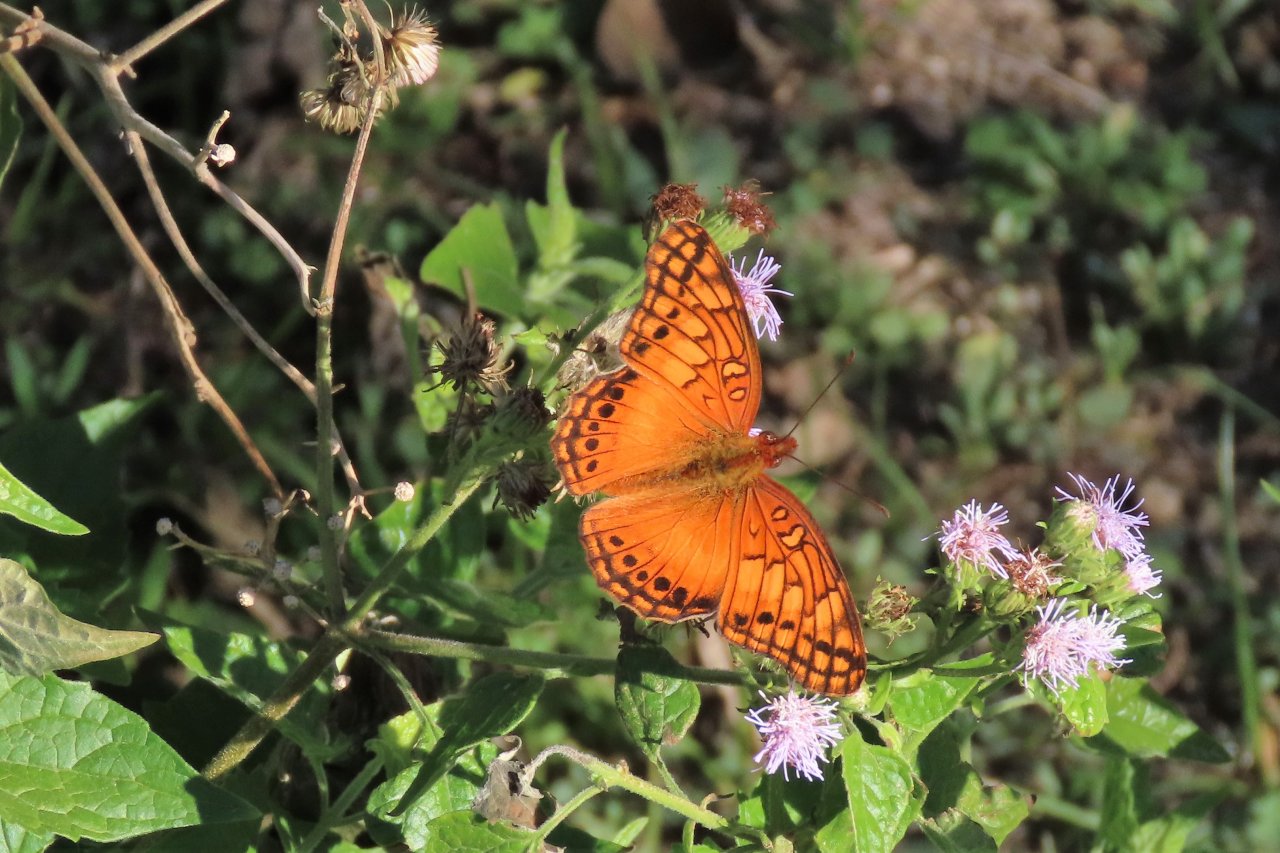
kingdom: Animalia
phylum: Arthropoda
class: Insecta
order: Lepidoptera
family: Nymphalidae
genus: Euptoieta
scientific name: Euptoieta hegesia
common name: Mexican Fritillary
